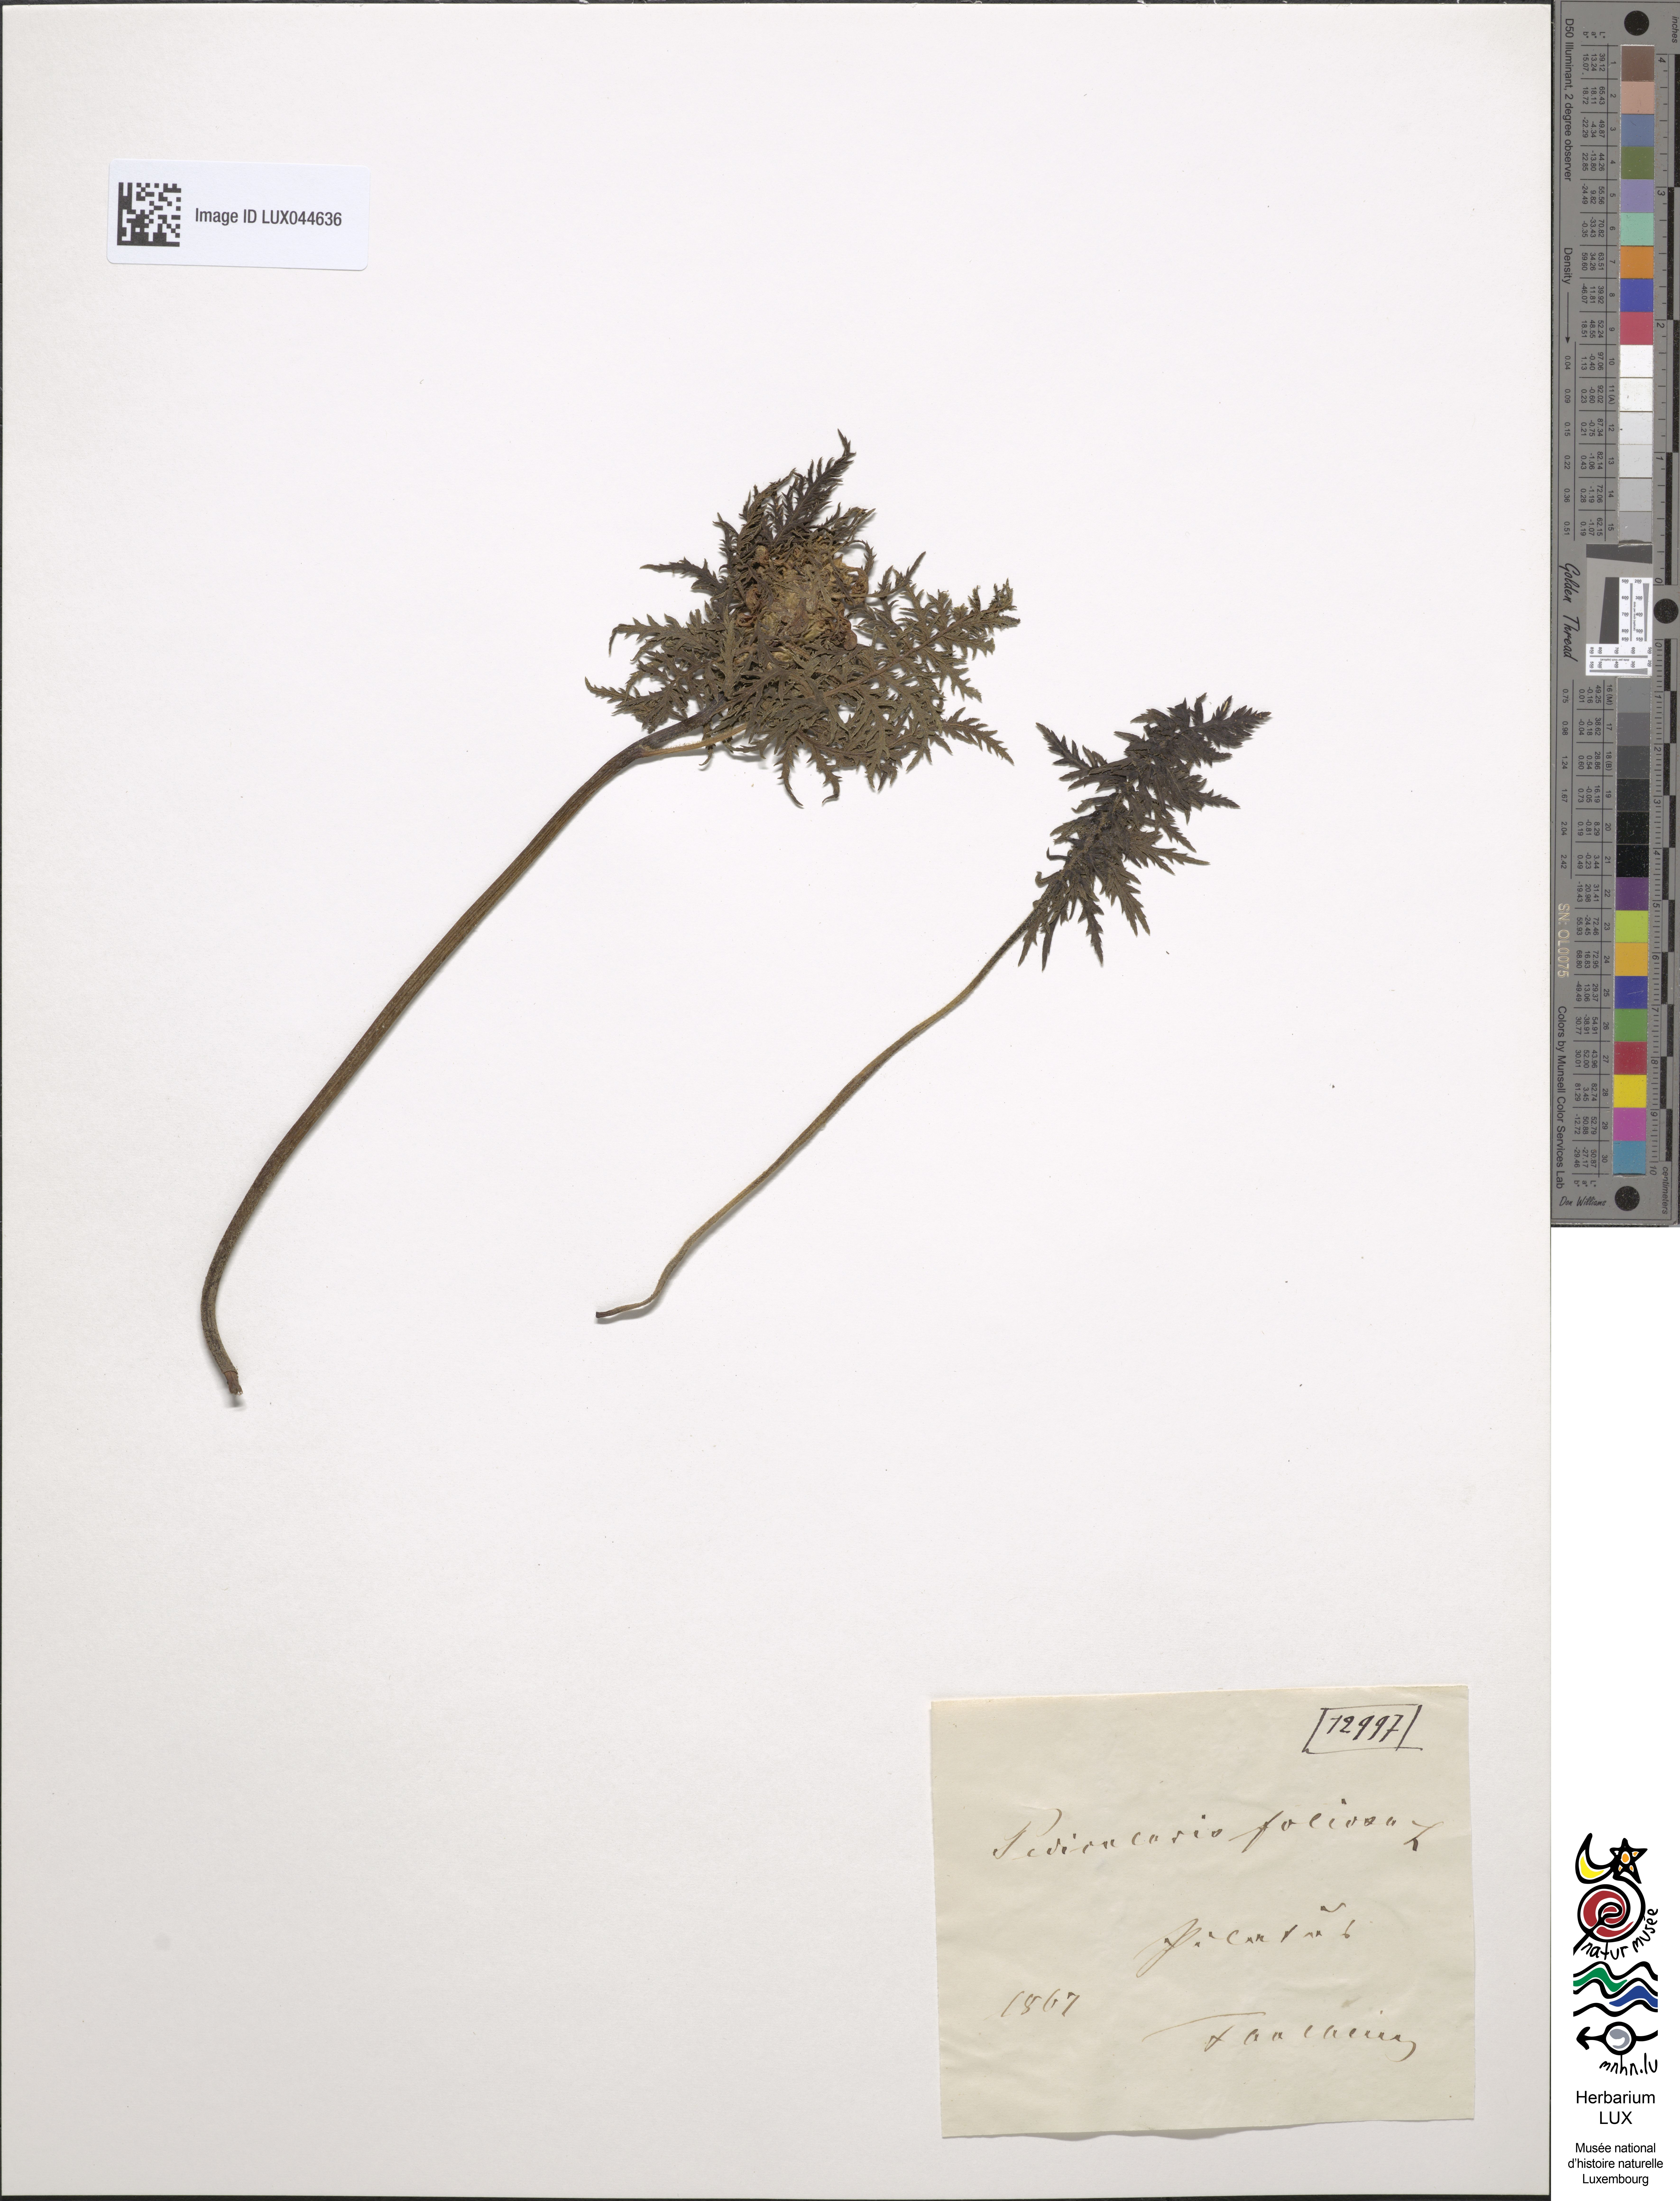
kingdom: Plantae
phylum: Tracheophyta
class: Magnoliopsida
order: Lamiales
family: Orobanchaceae
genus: Pedicularis
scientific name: Pedicularis foliosa
